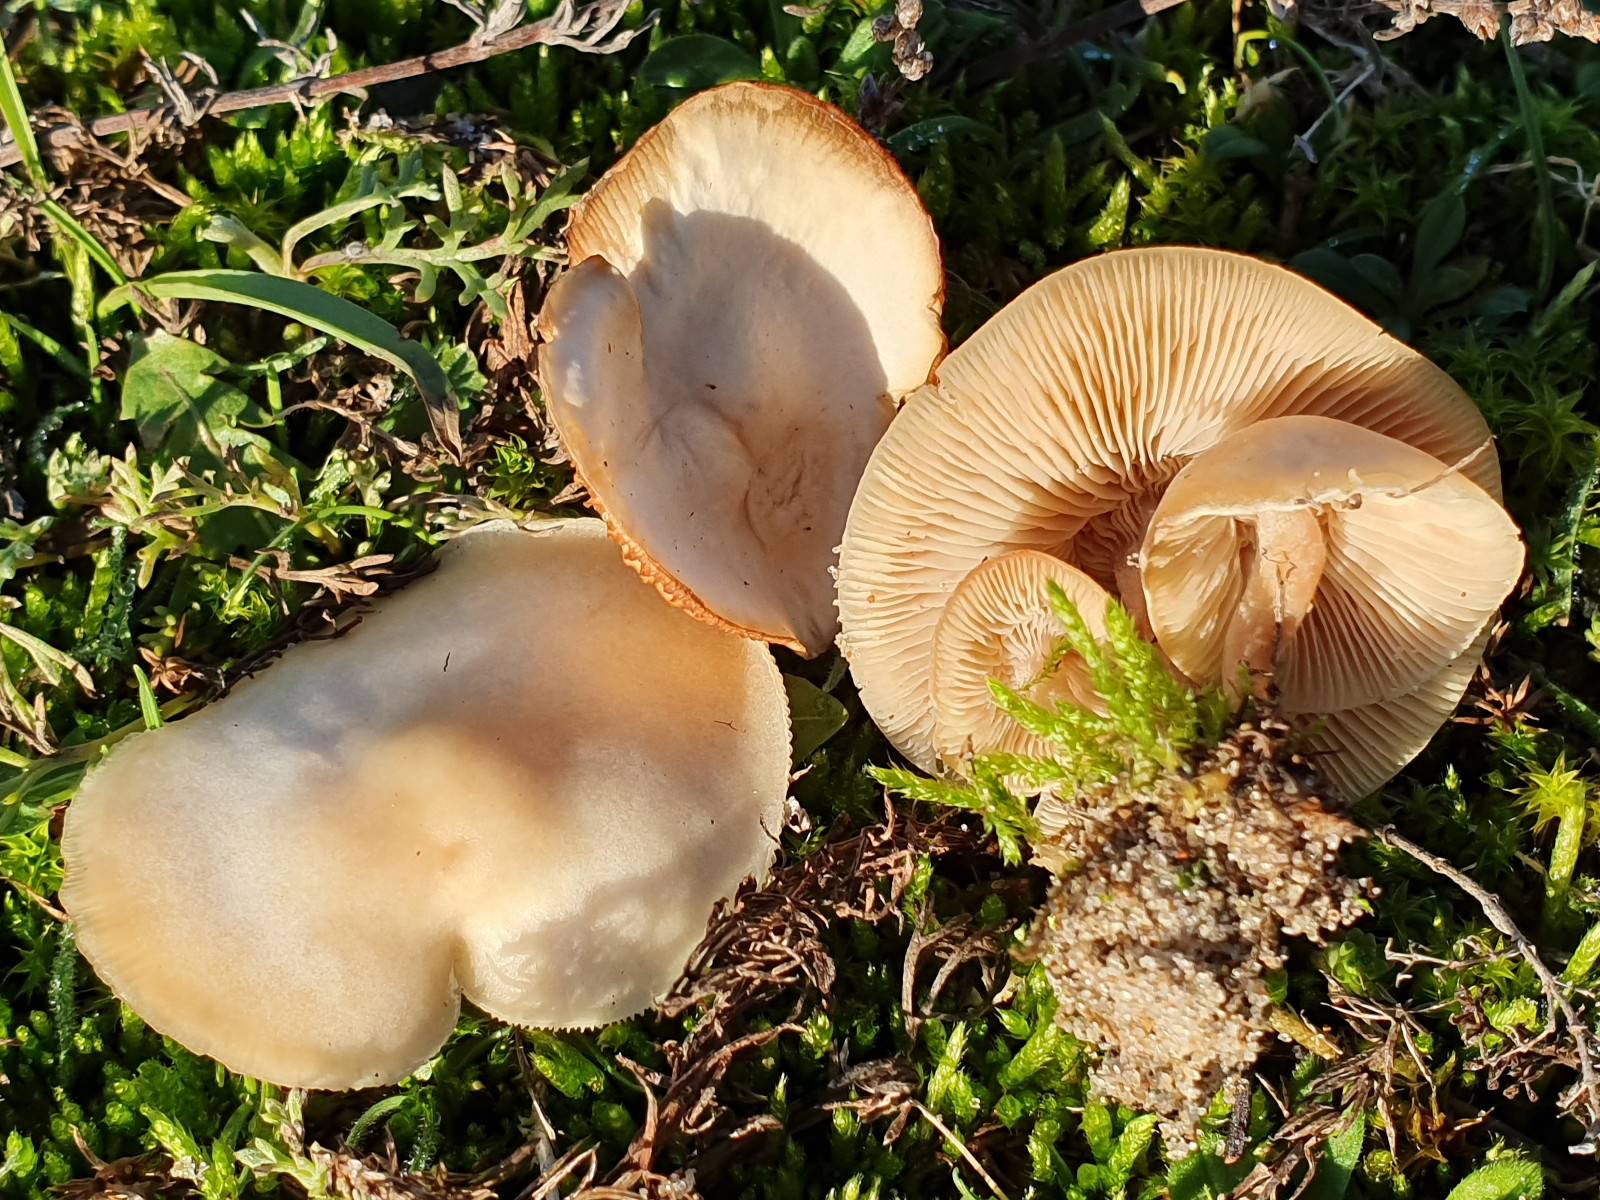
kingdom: Fungi
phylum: Basidiomycota
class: Agaricomycetes
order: Agaricales
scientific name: Agaricales
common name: champignonordenen
